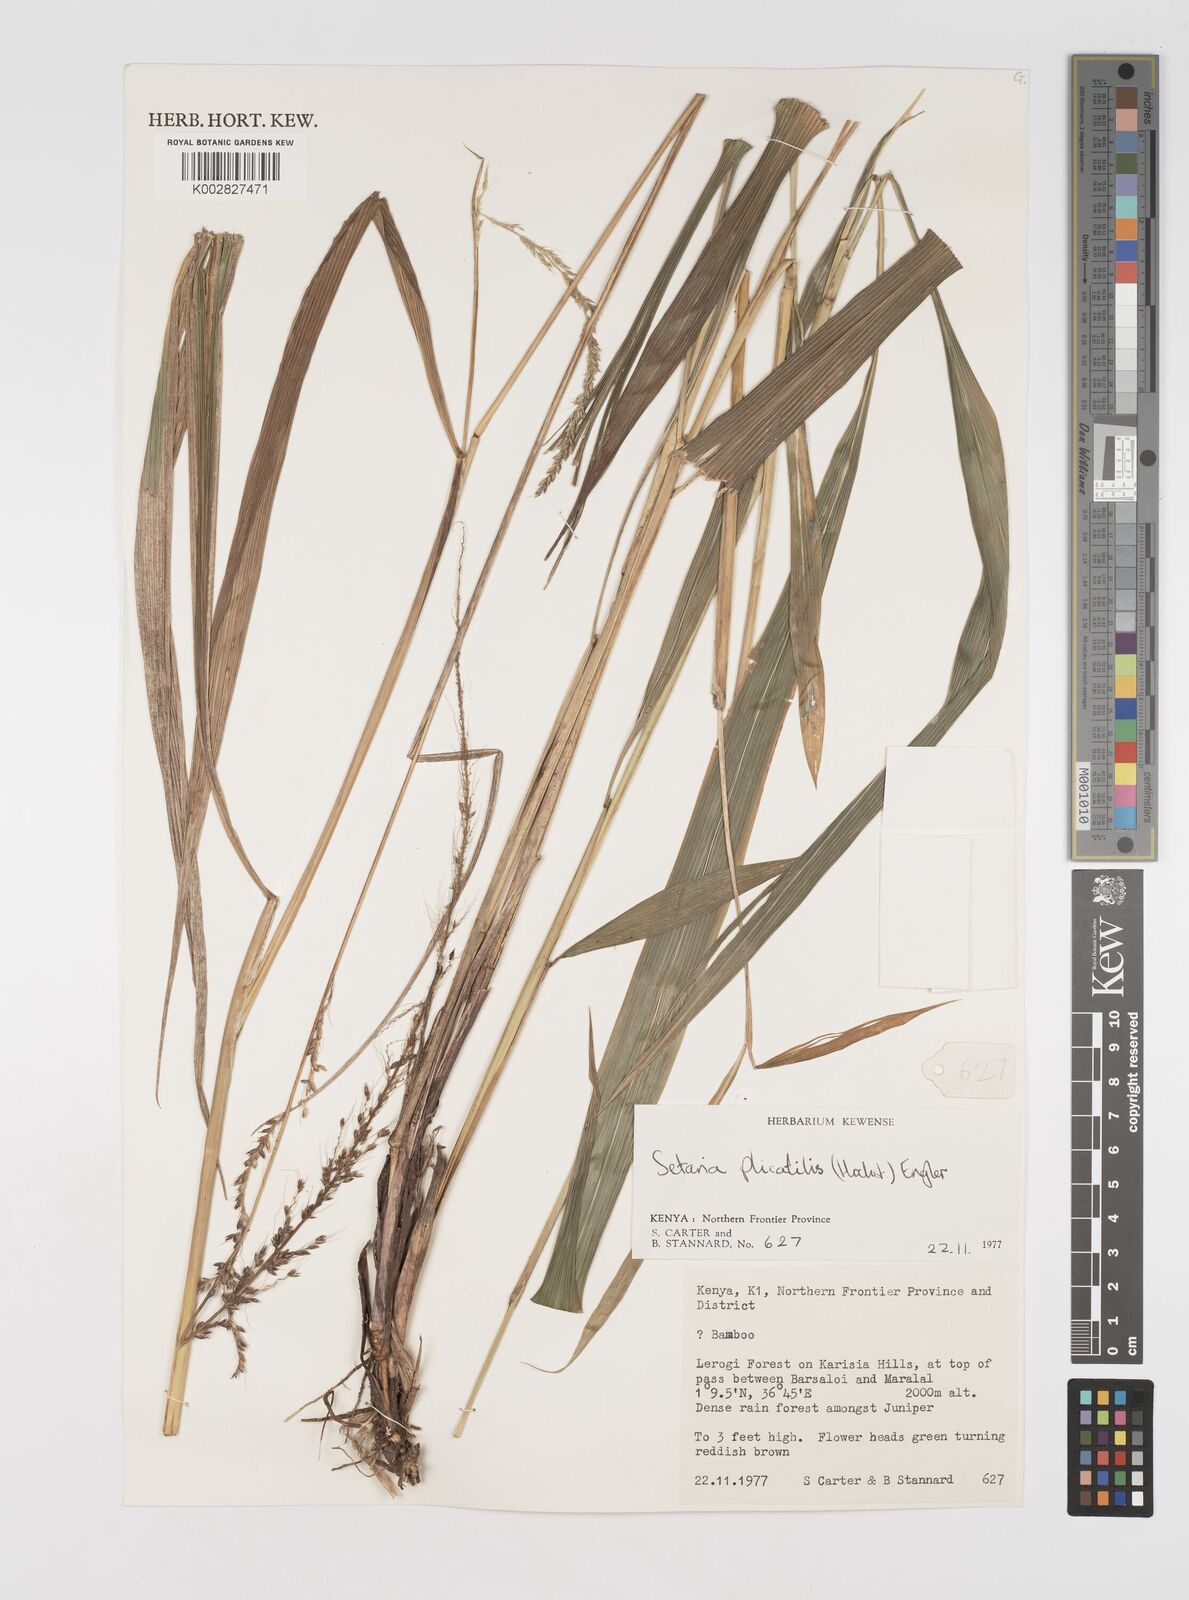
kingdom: Plantae
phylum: Tracheophyta
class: Liliopsida
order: Poales
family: Poaceae
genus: Setaria
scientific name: Setaria megaphylla
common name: Bigleaf bristlegrass
